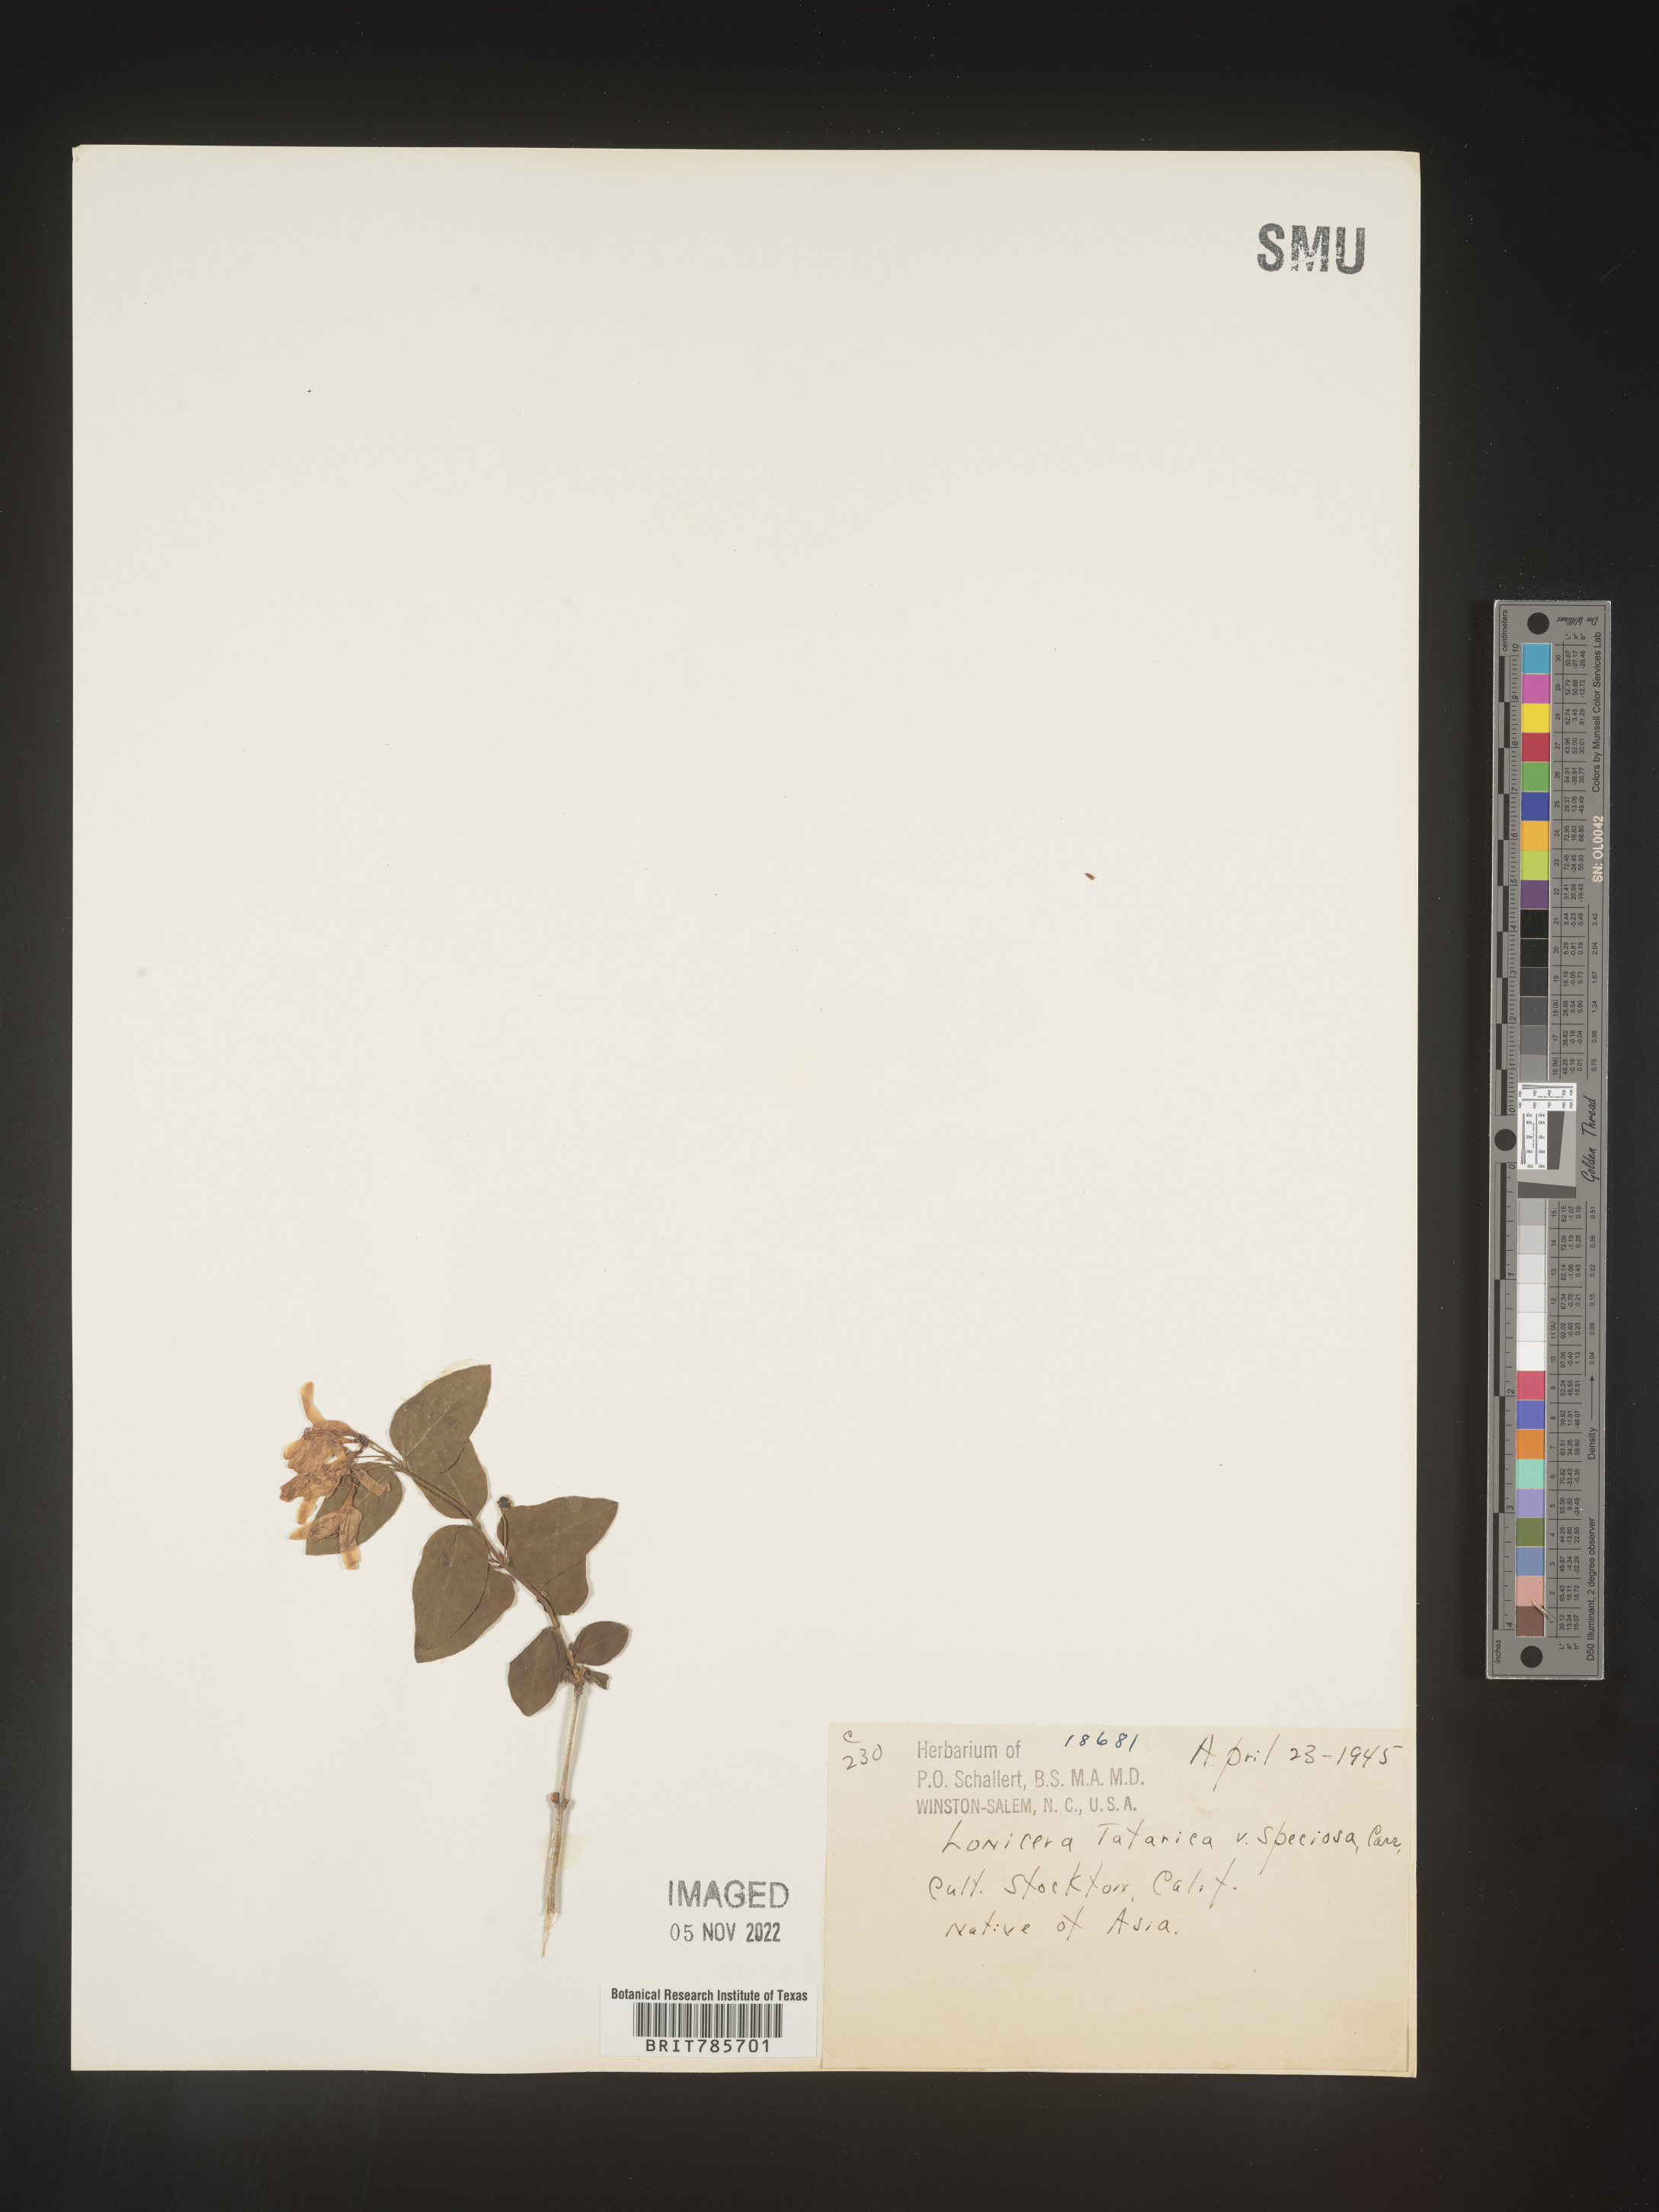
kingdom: Plantae
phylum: Tracheophyta
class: Magnoliopsida
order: Dipsacales
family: Caprifoliaceae
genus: Lonicera
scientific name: Lonicera
